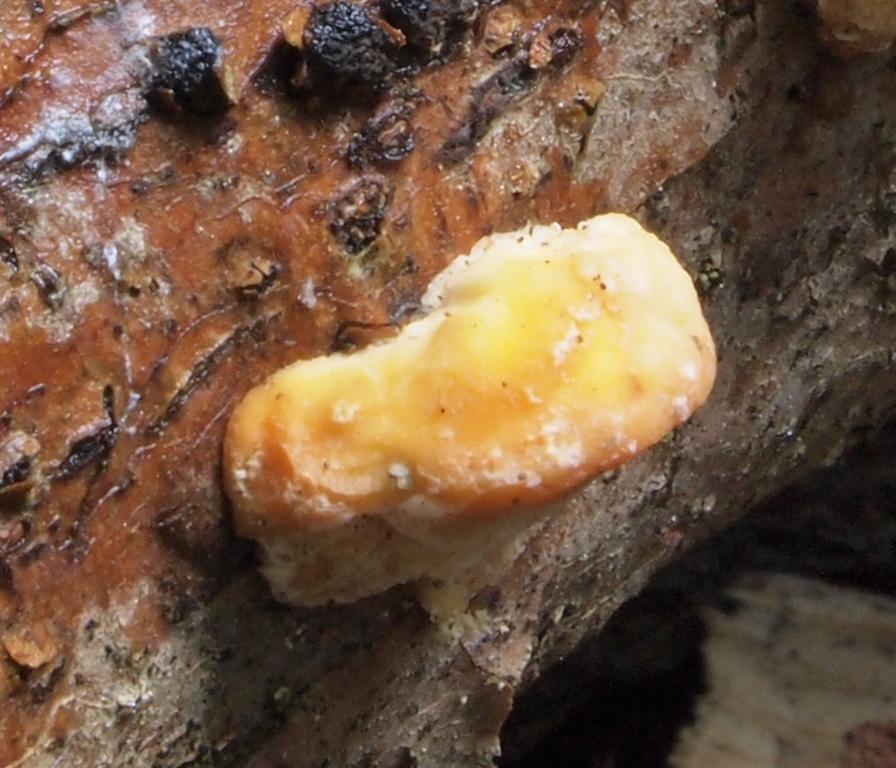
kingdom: Fungi
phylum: Basidiomycota
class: Agaricomycetes
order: Polyporales
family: Steccherinaceae
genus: Antrodiella
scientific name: Antrodiella serpula
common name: gulrandet elastikporesvamp
